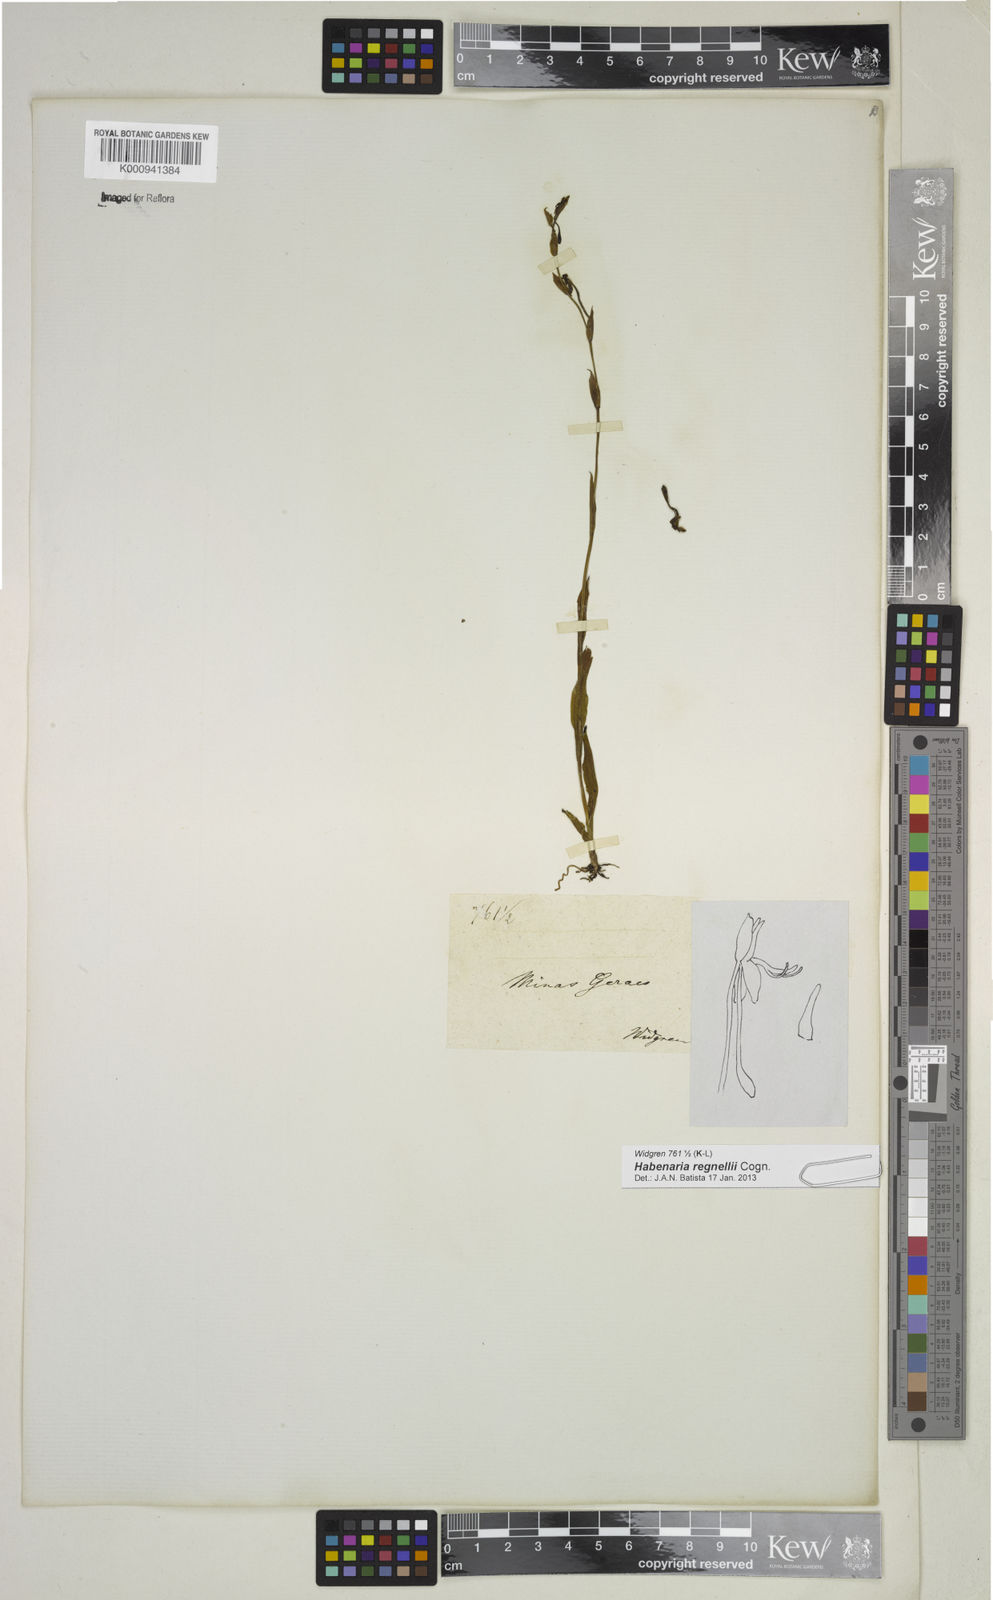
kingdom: Plantae
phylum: Tracheophyta
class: Liliopsida
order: Asparagales
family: Orchidaceae
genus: Habenaria
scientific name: Habenaria regnellii
